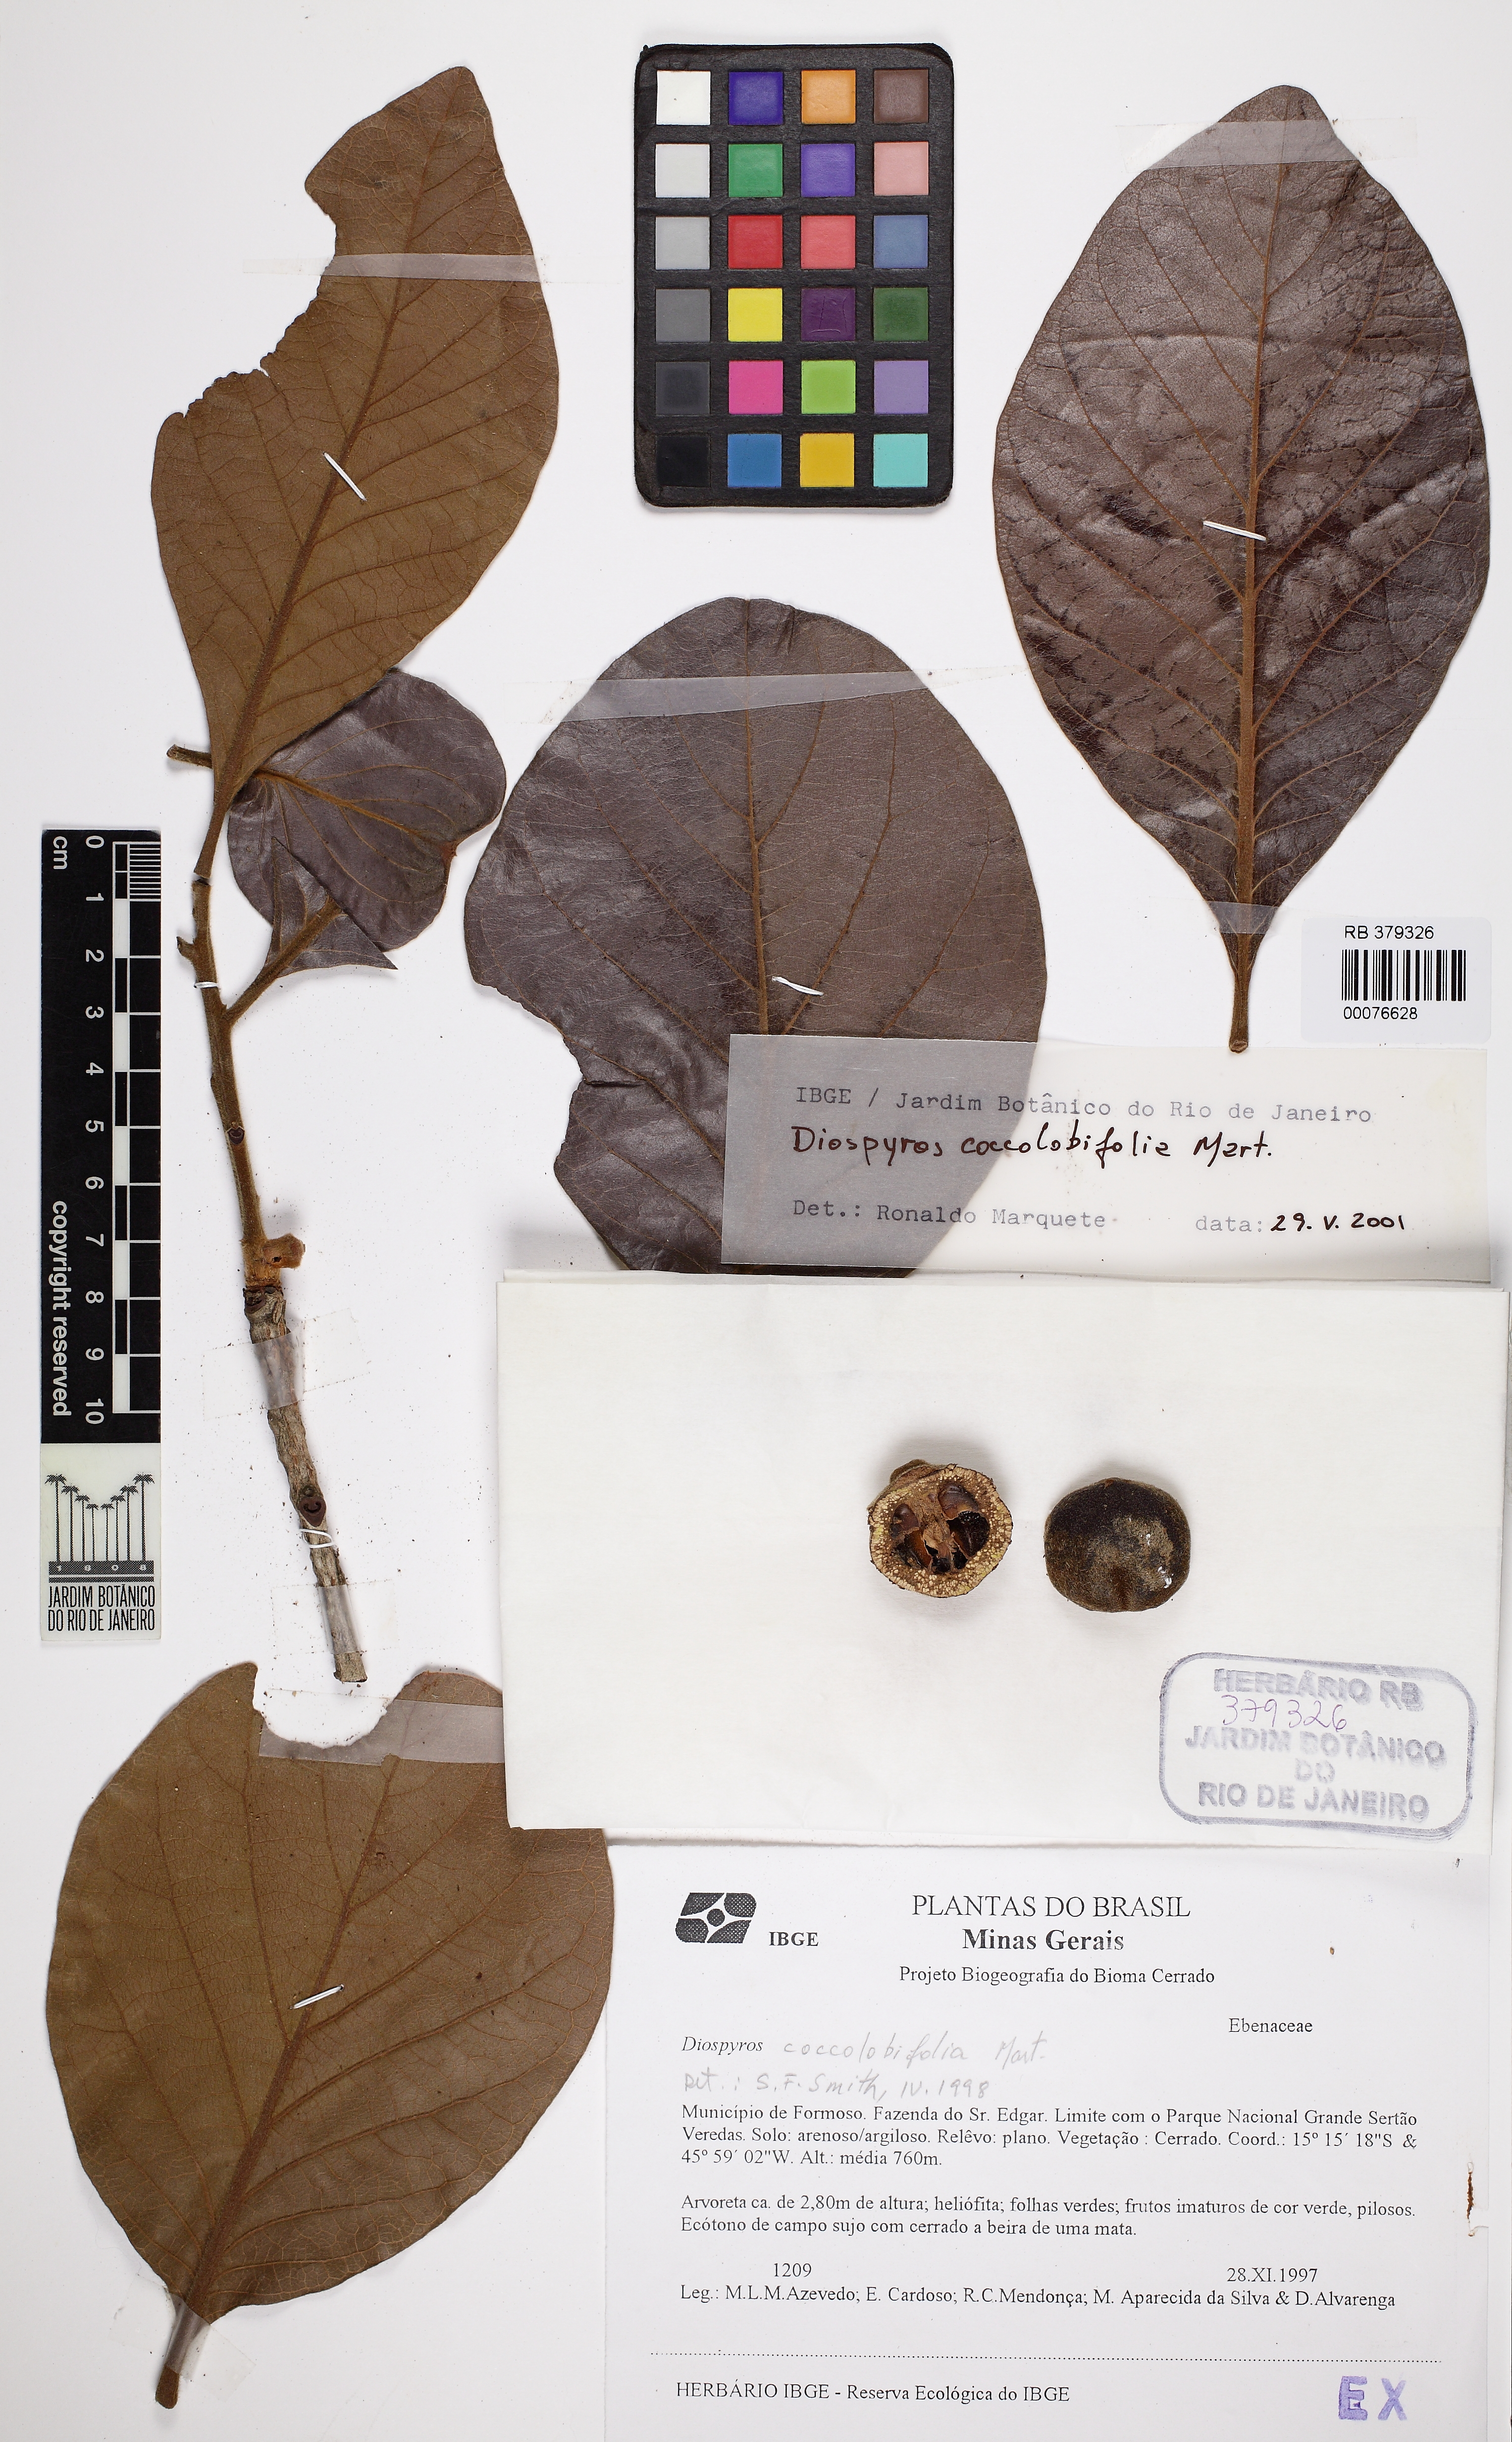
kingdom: Plantae
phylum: Tracheophyta
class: Magnoliopsida
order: Ericales
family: Ebenaceae
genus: Diospyros
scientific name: Diospyros coccolobifolia
